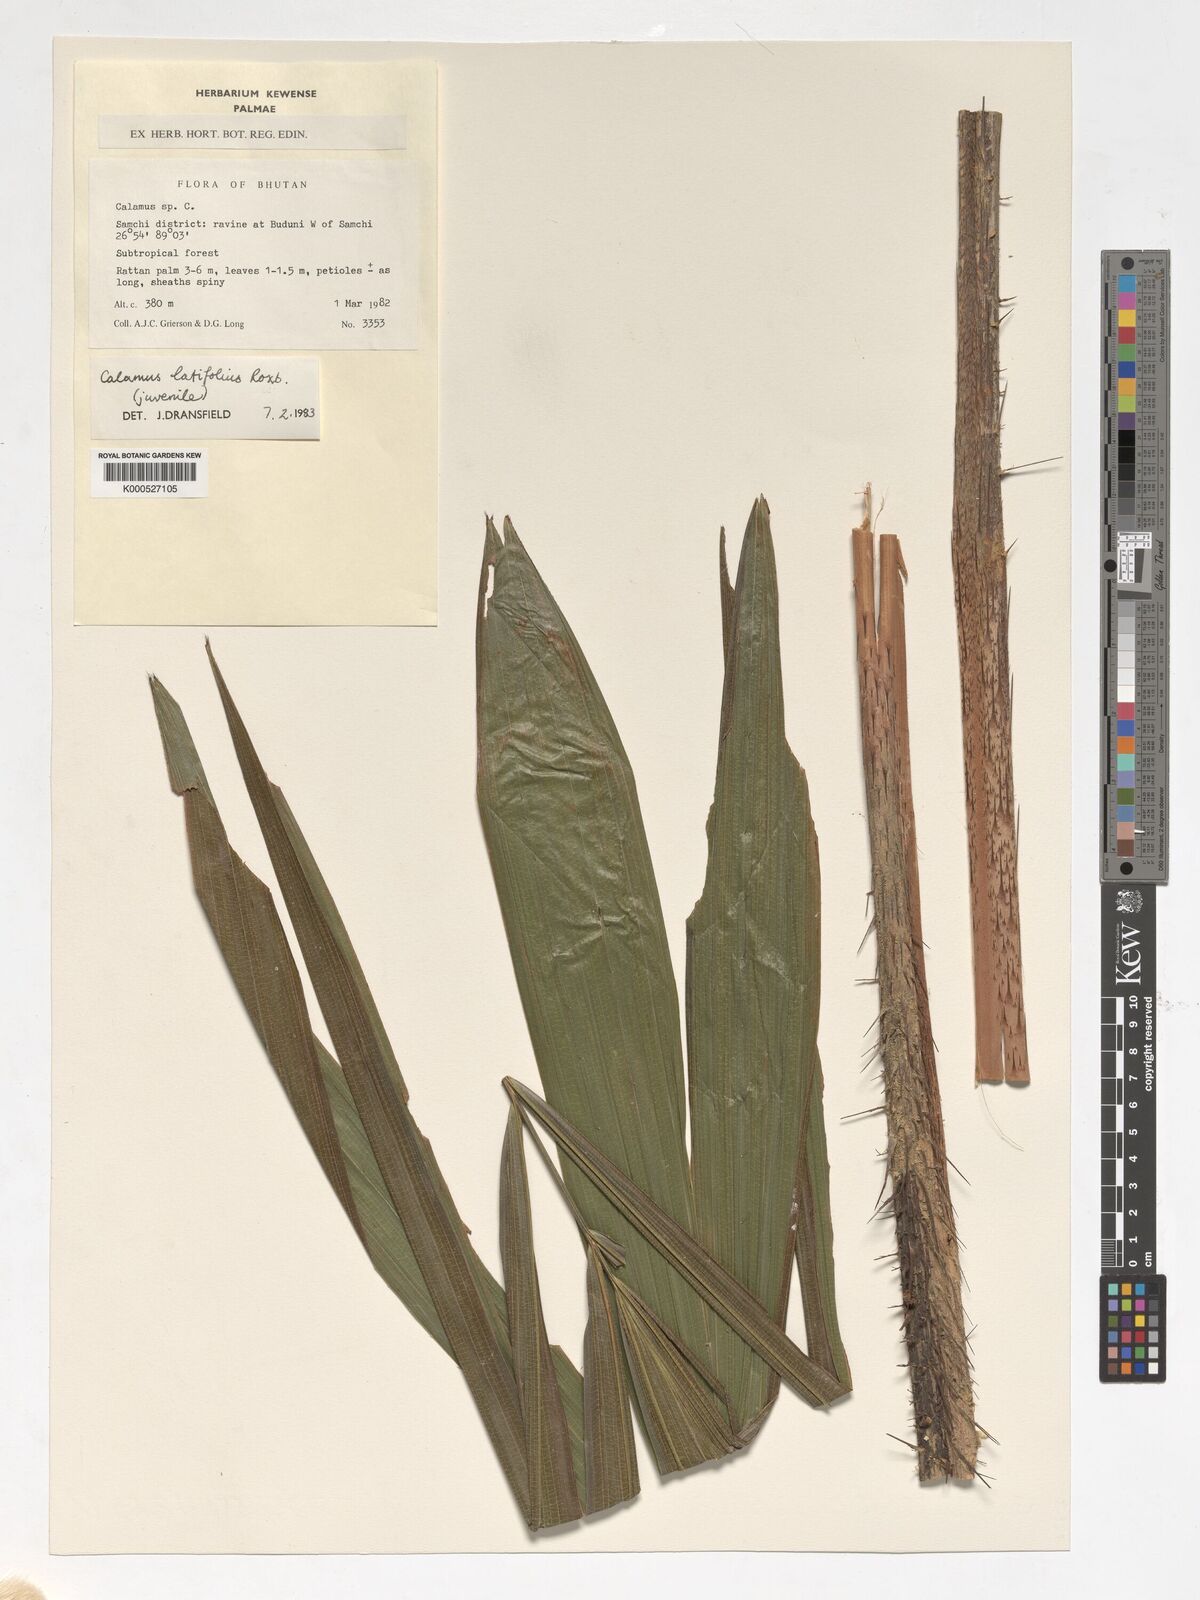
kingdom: Plantae
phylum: Tracheophyta
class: Liliopsida
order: Arecales
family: Arecaceae
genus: Calamus
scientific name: Calamus latifolius
